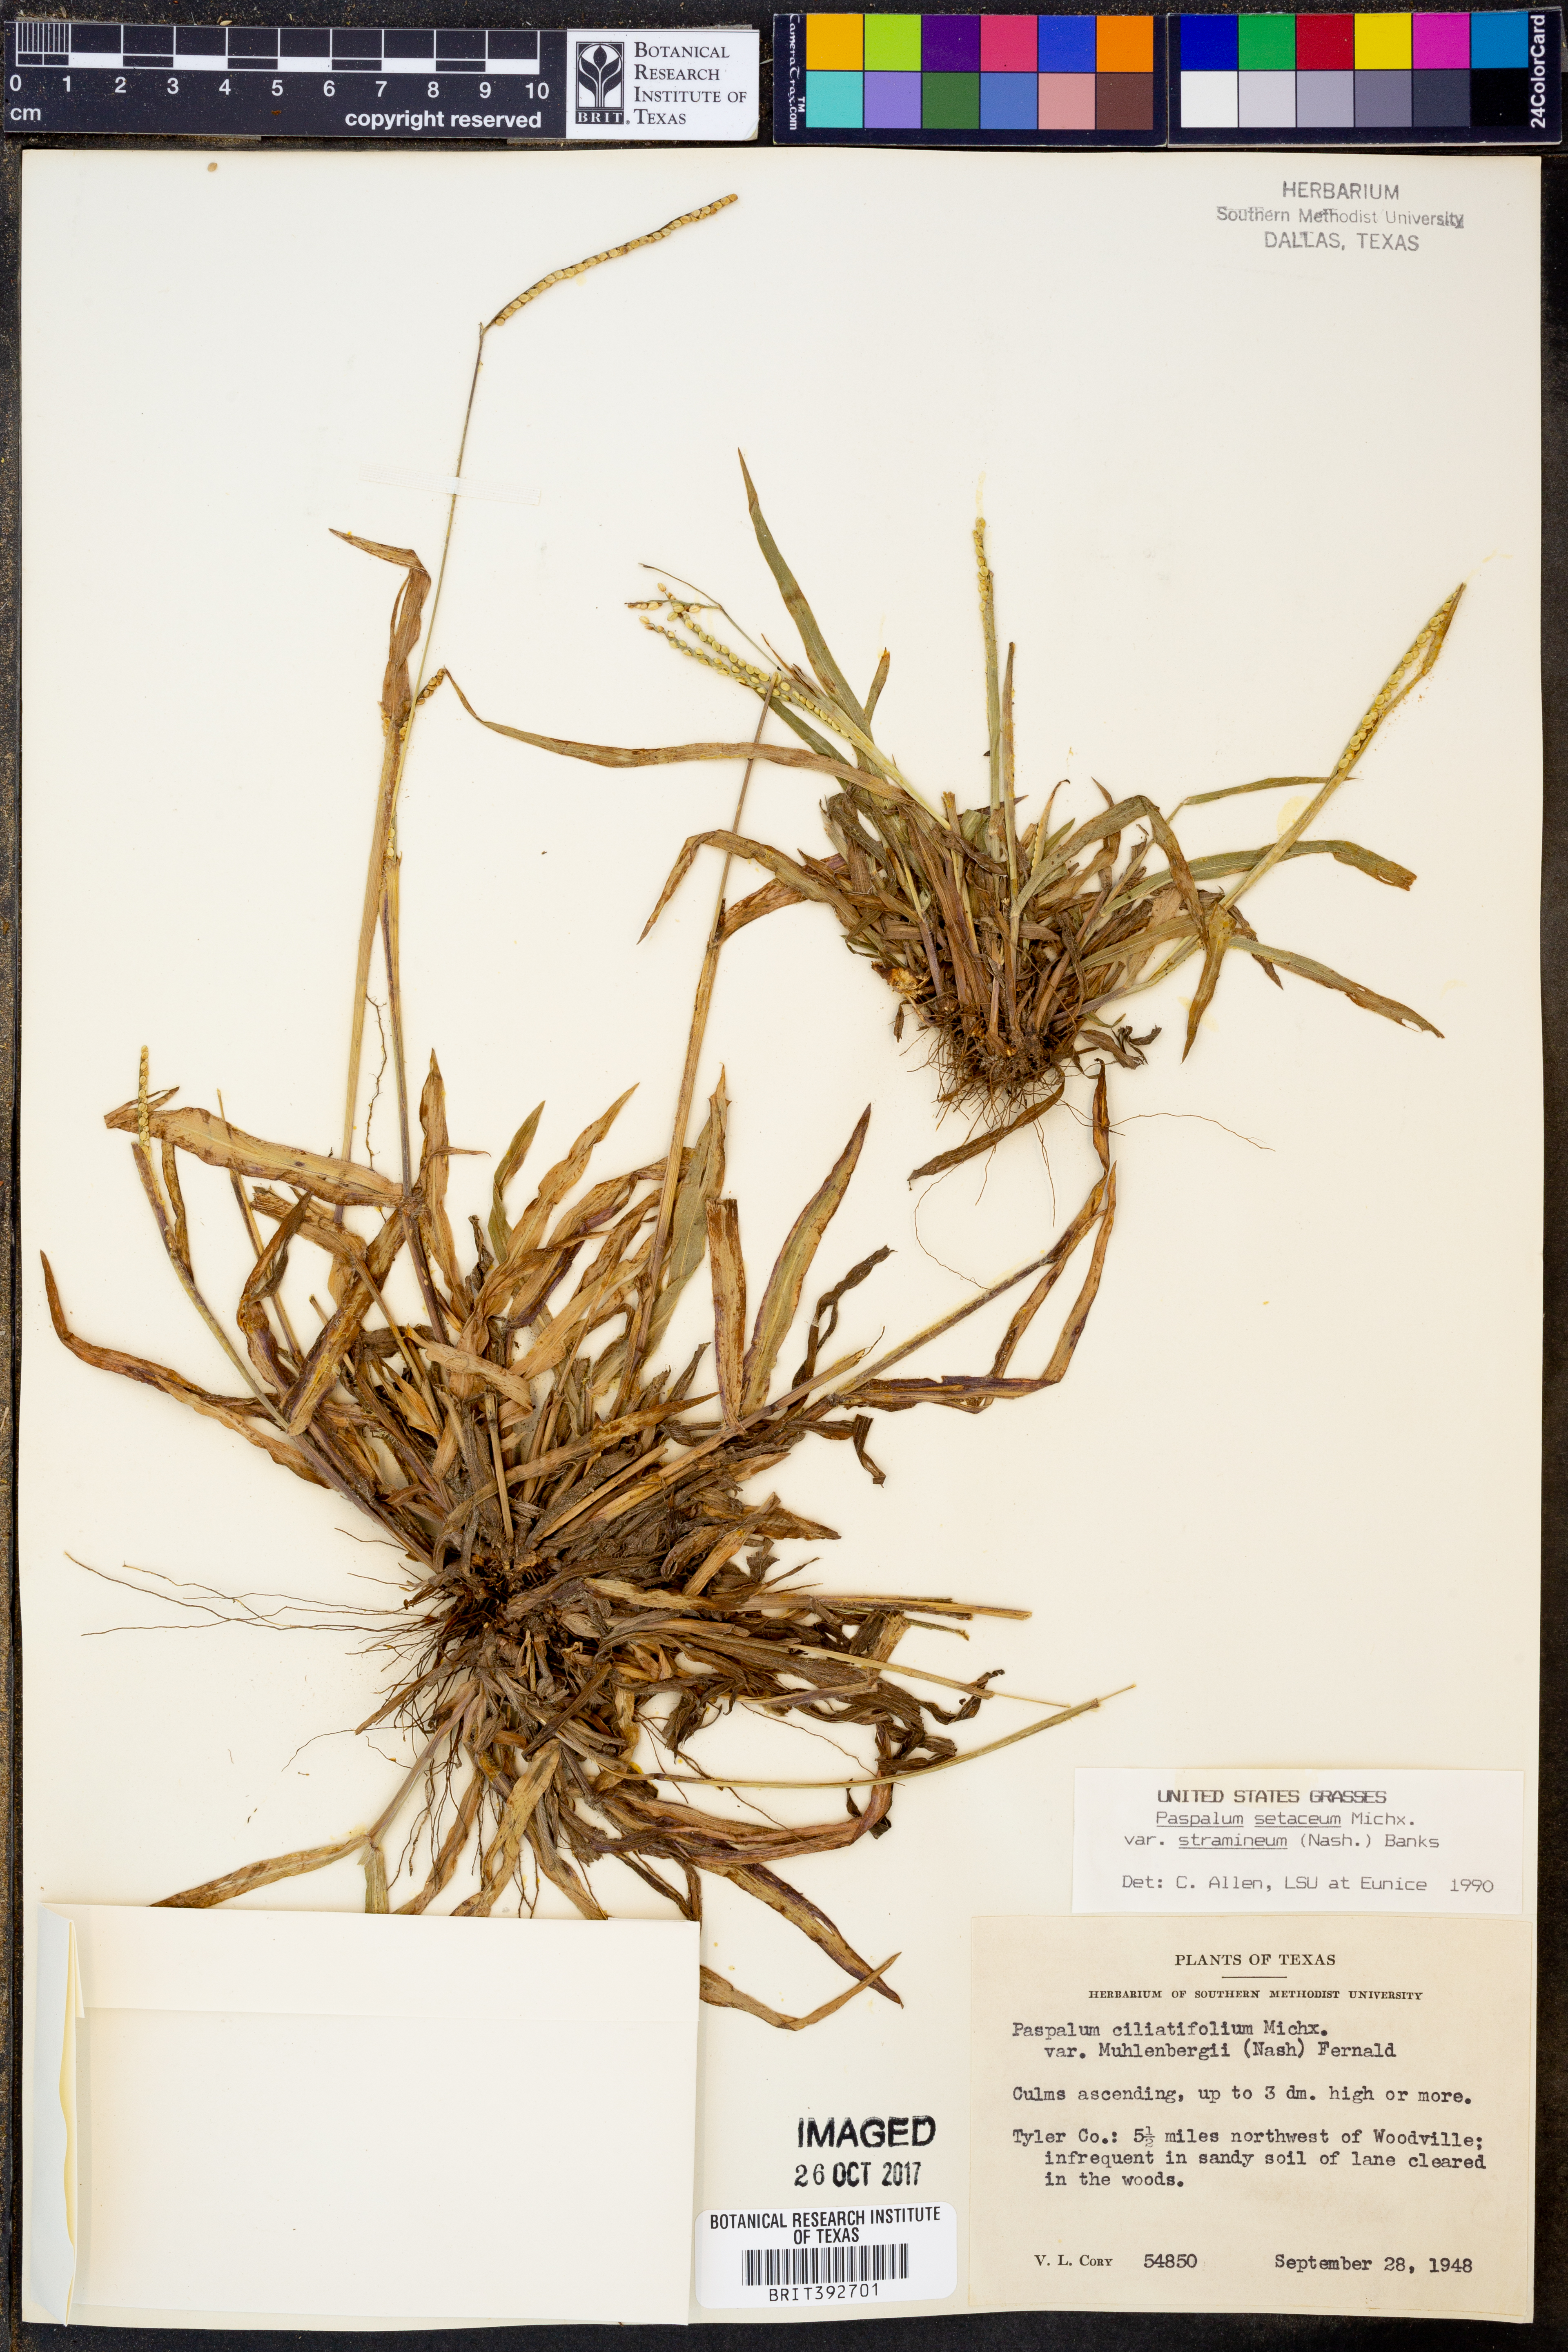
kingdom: Plantae
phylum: Tracheophyta
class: Liliopsida
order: Poales
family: Poaceae
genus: Paspalum
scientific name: Paspalum setaceum
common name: Slender paspalum
